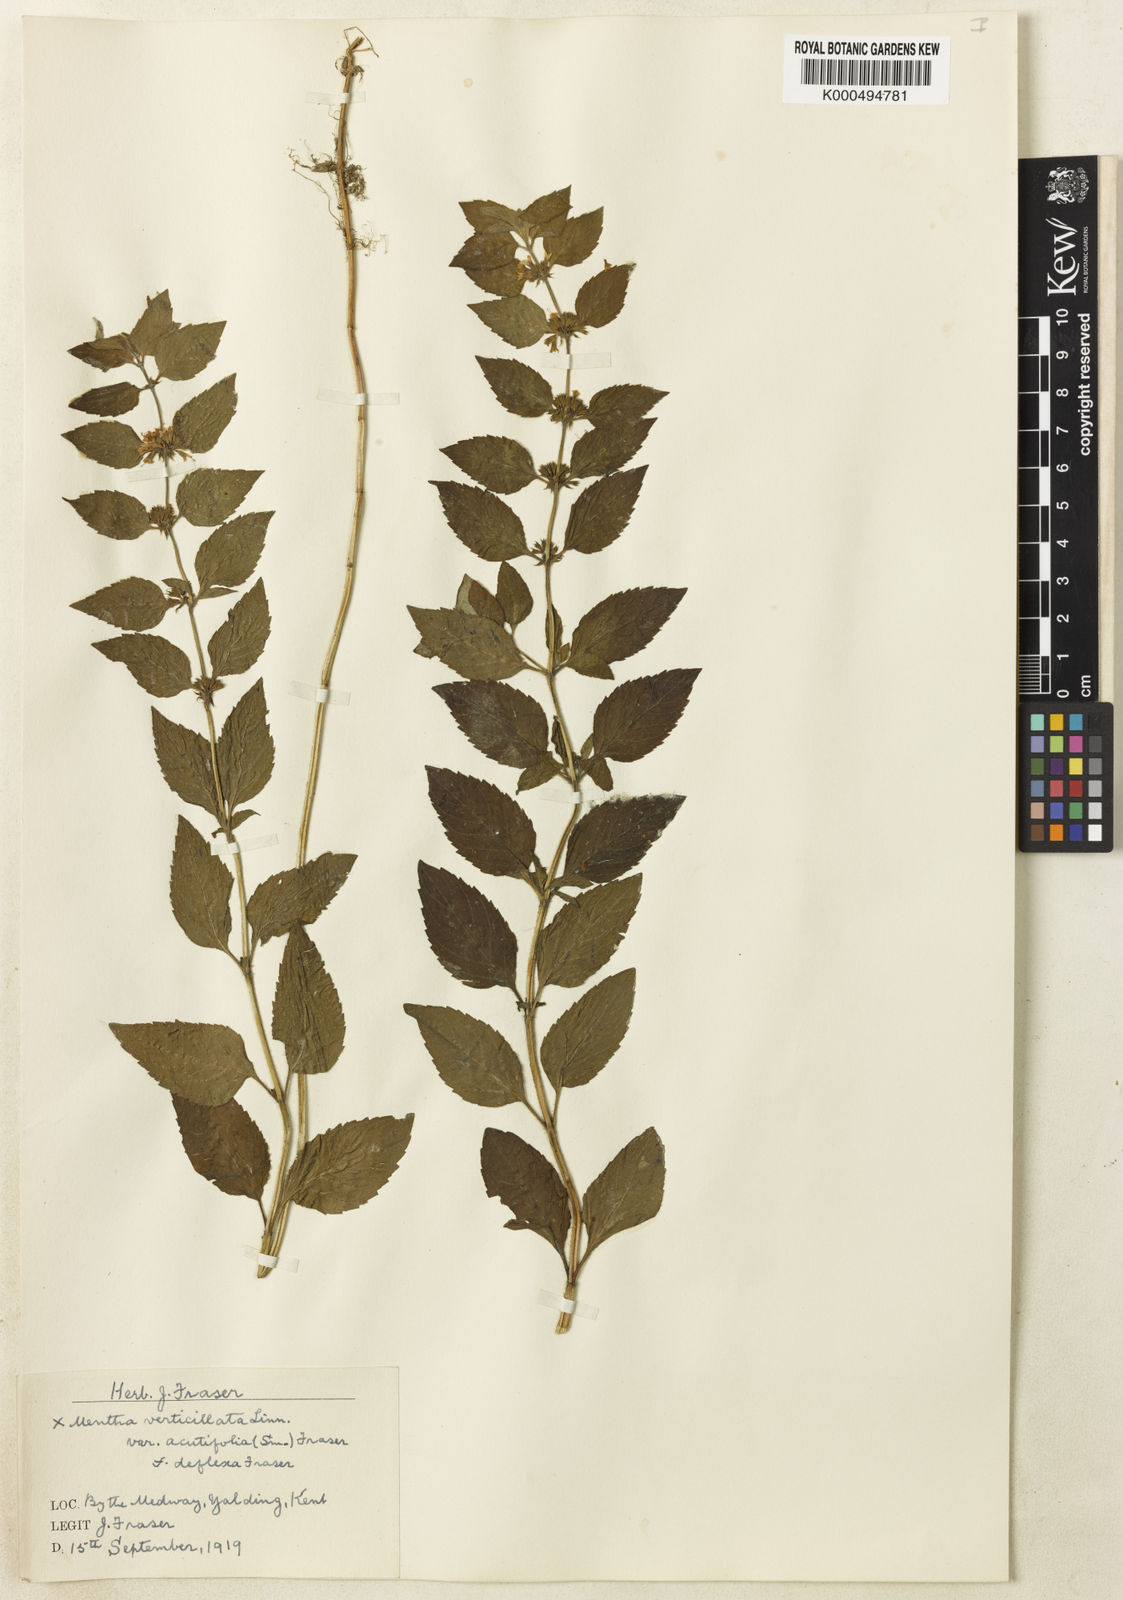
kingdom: Plantae
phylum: Tracheophyta
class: Magnoliopsida
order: Lamiales
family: Lamiaceae
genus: Mentha
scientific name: Mentha verticillata
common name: Mint
